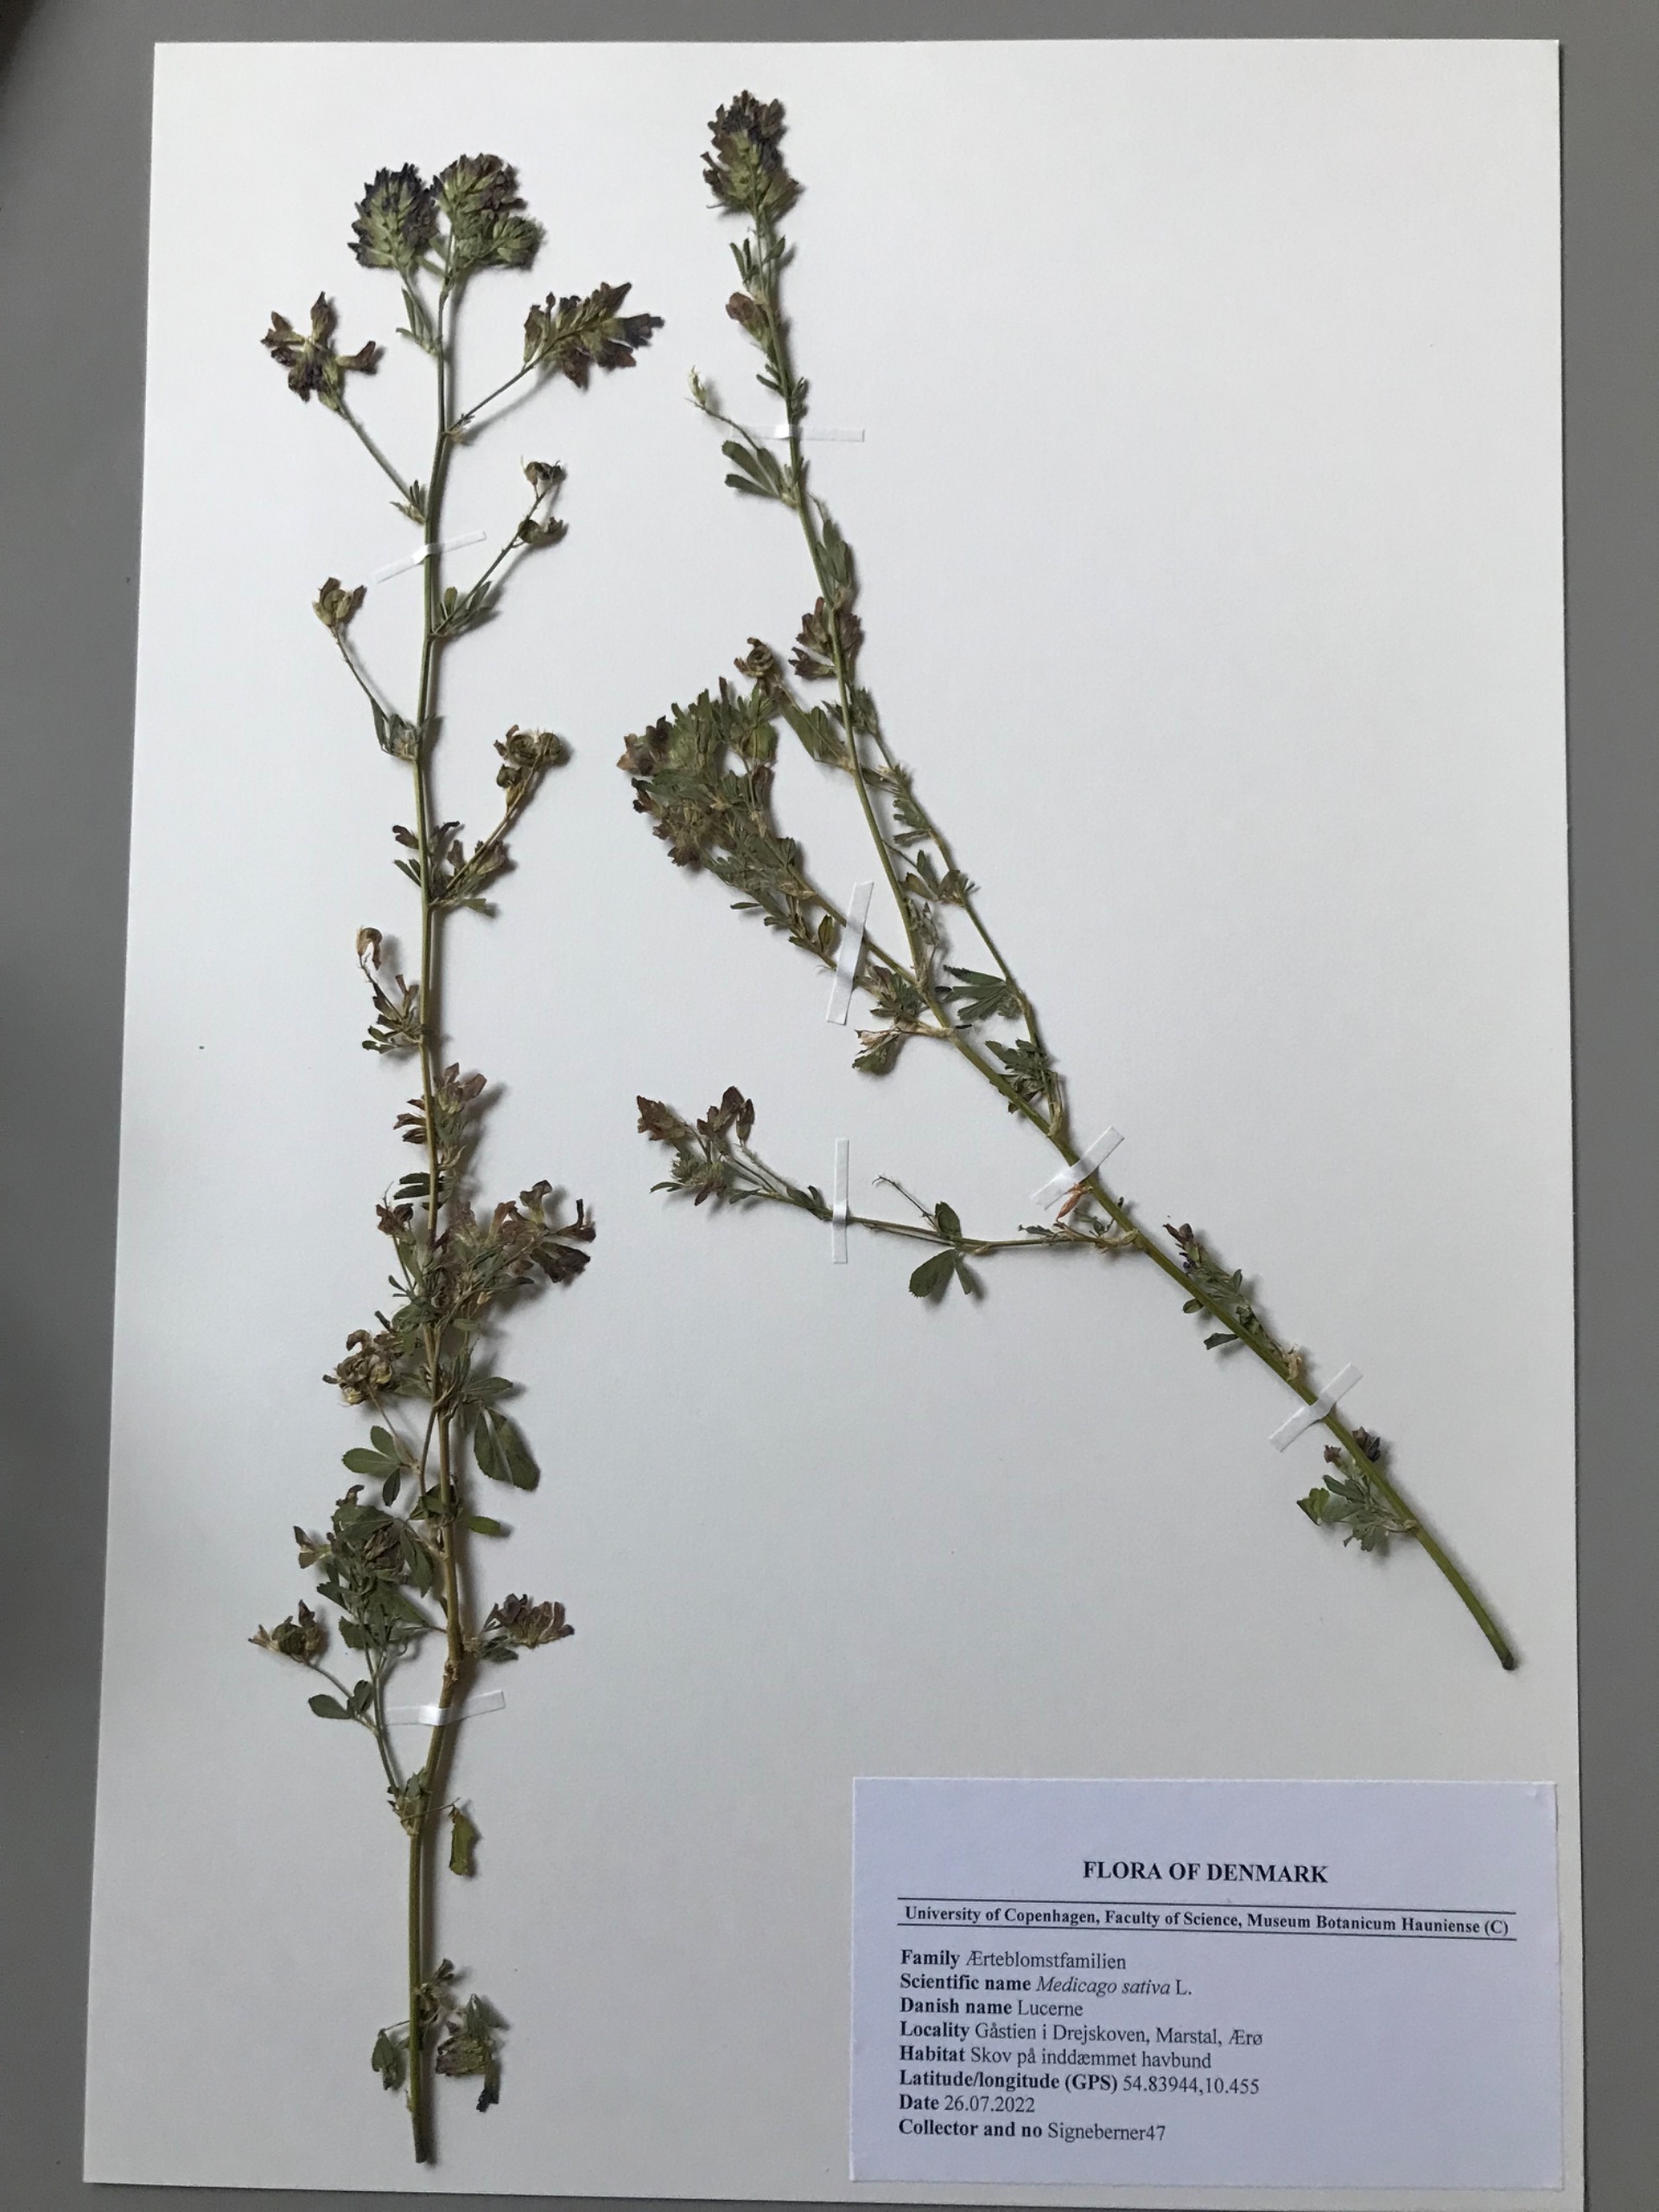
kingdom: Plantae
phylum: Tracheophyta
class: Magnoliopsida
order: Fabales
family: Fabaceae
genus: Medicago
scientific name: Medicago sativa
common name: Lucerne
